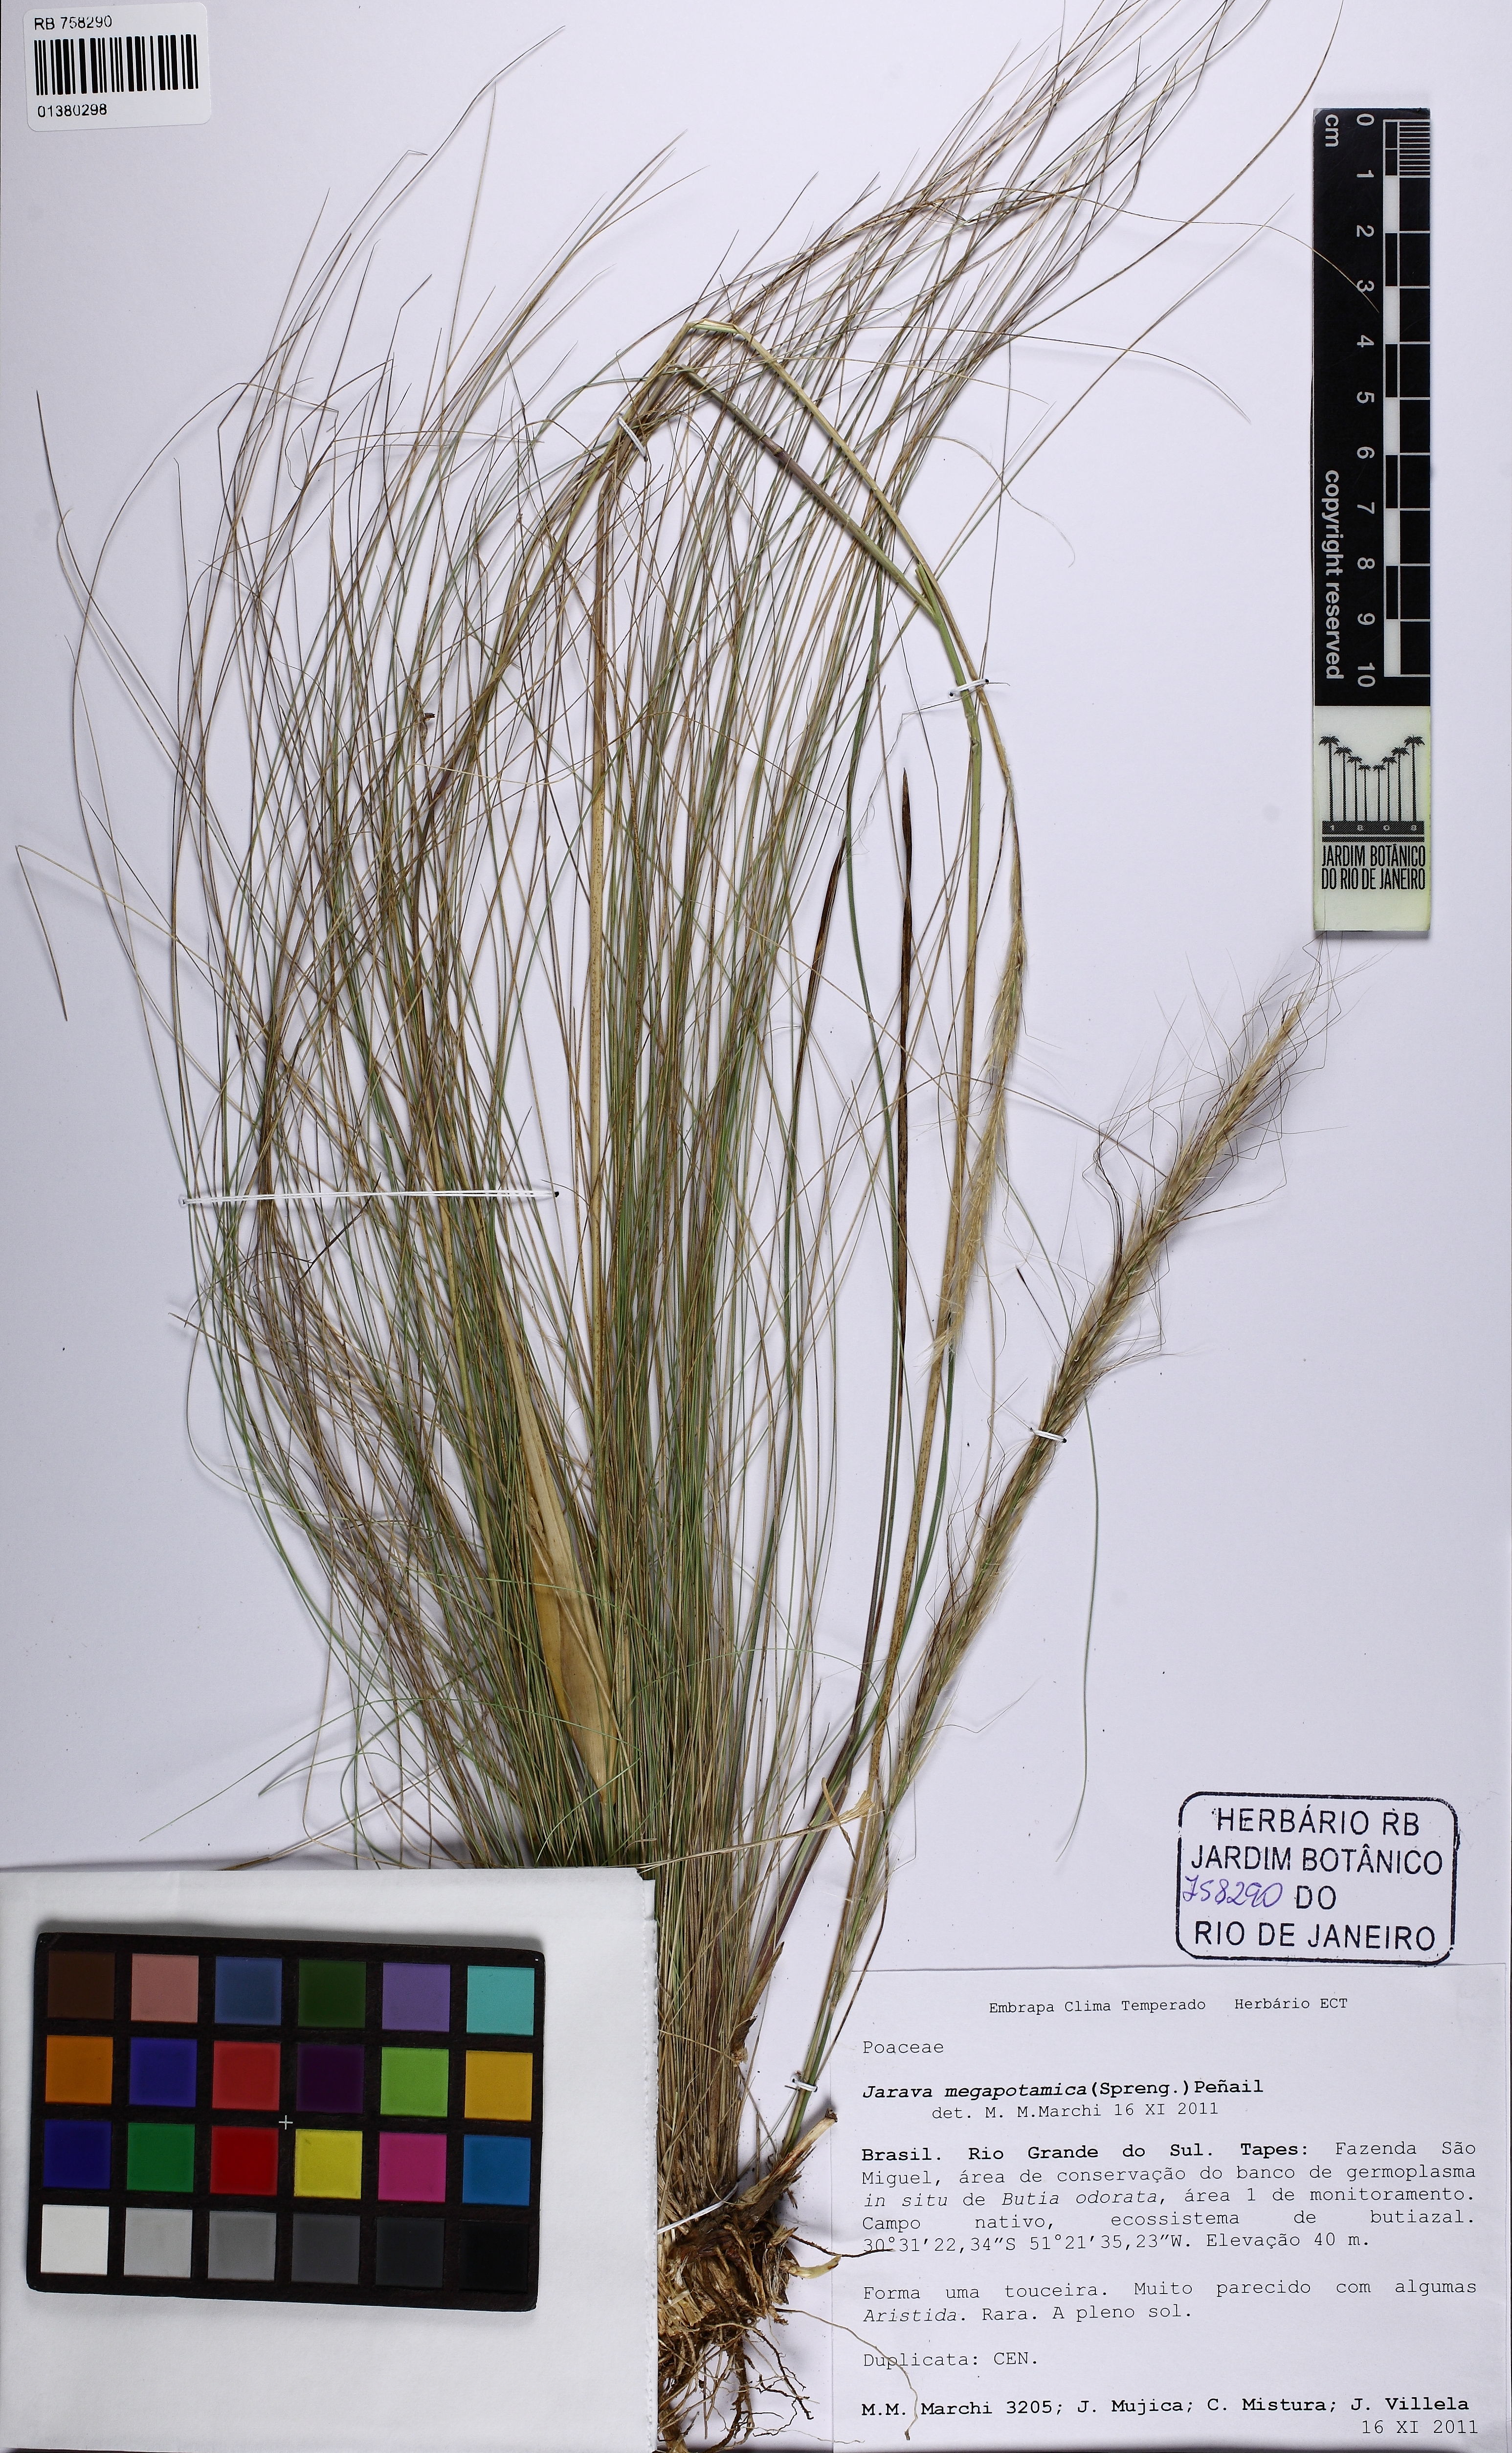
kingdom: Plantae
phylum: Tracheophyta
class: Liliopsida
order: Poales
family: Poaceae
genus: Aristida
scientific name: Aristida megapotamica
